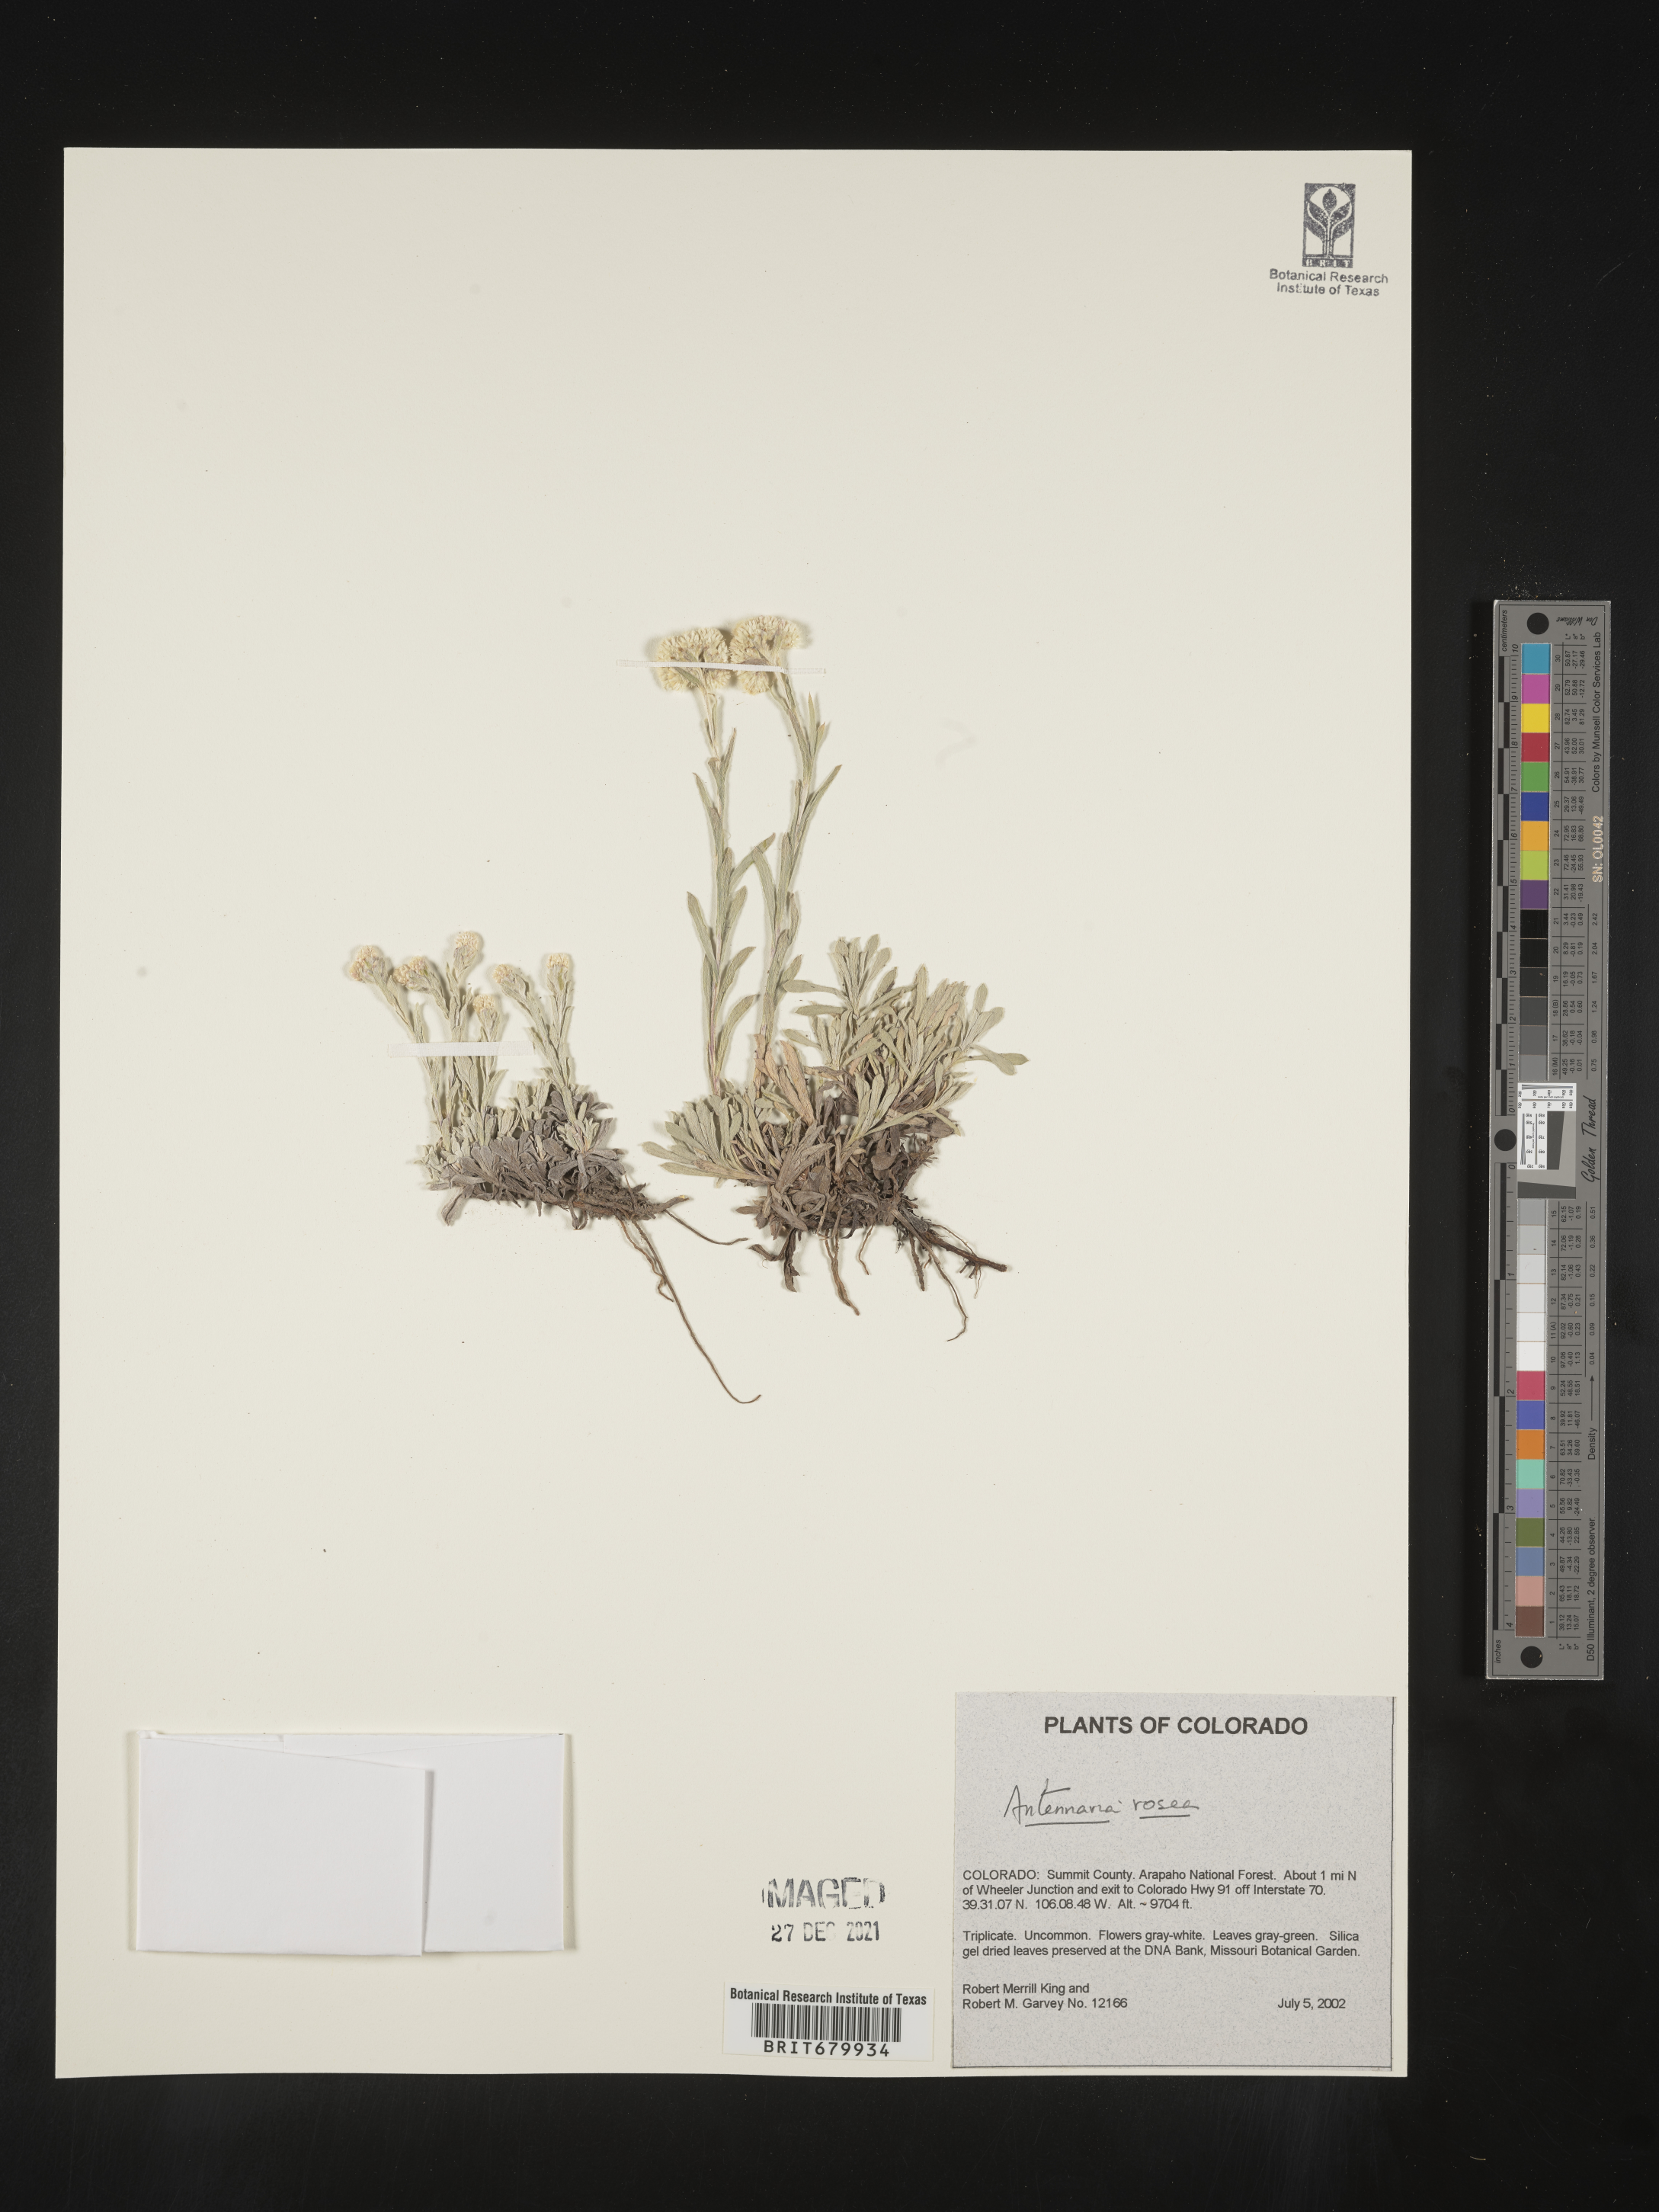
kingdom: Plantae
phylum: Tracheophyta
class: Magnoliopsida
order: Asterales
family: Asteraceae
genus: Antennaria
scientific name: Antennaria rosea
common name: Rosy pussytoes
